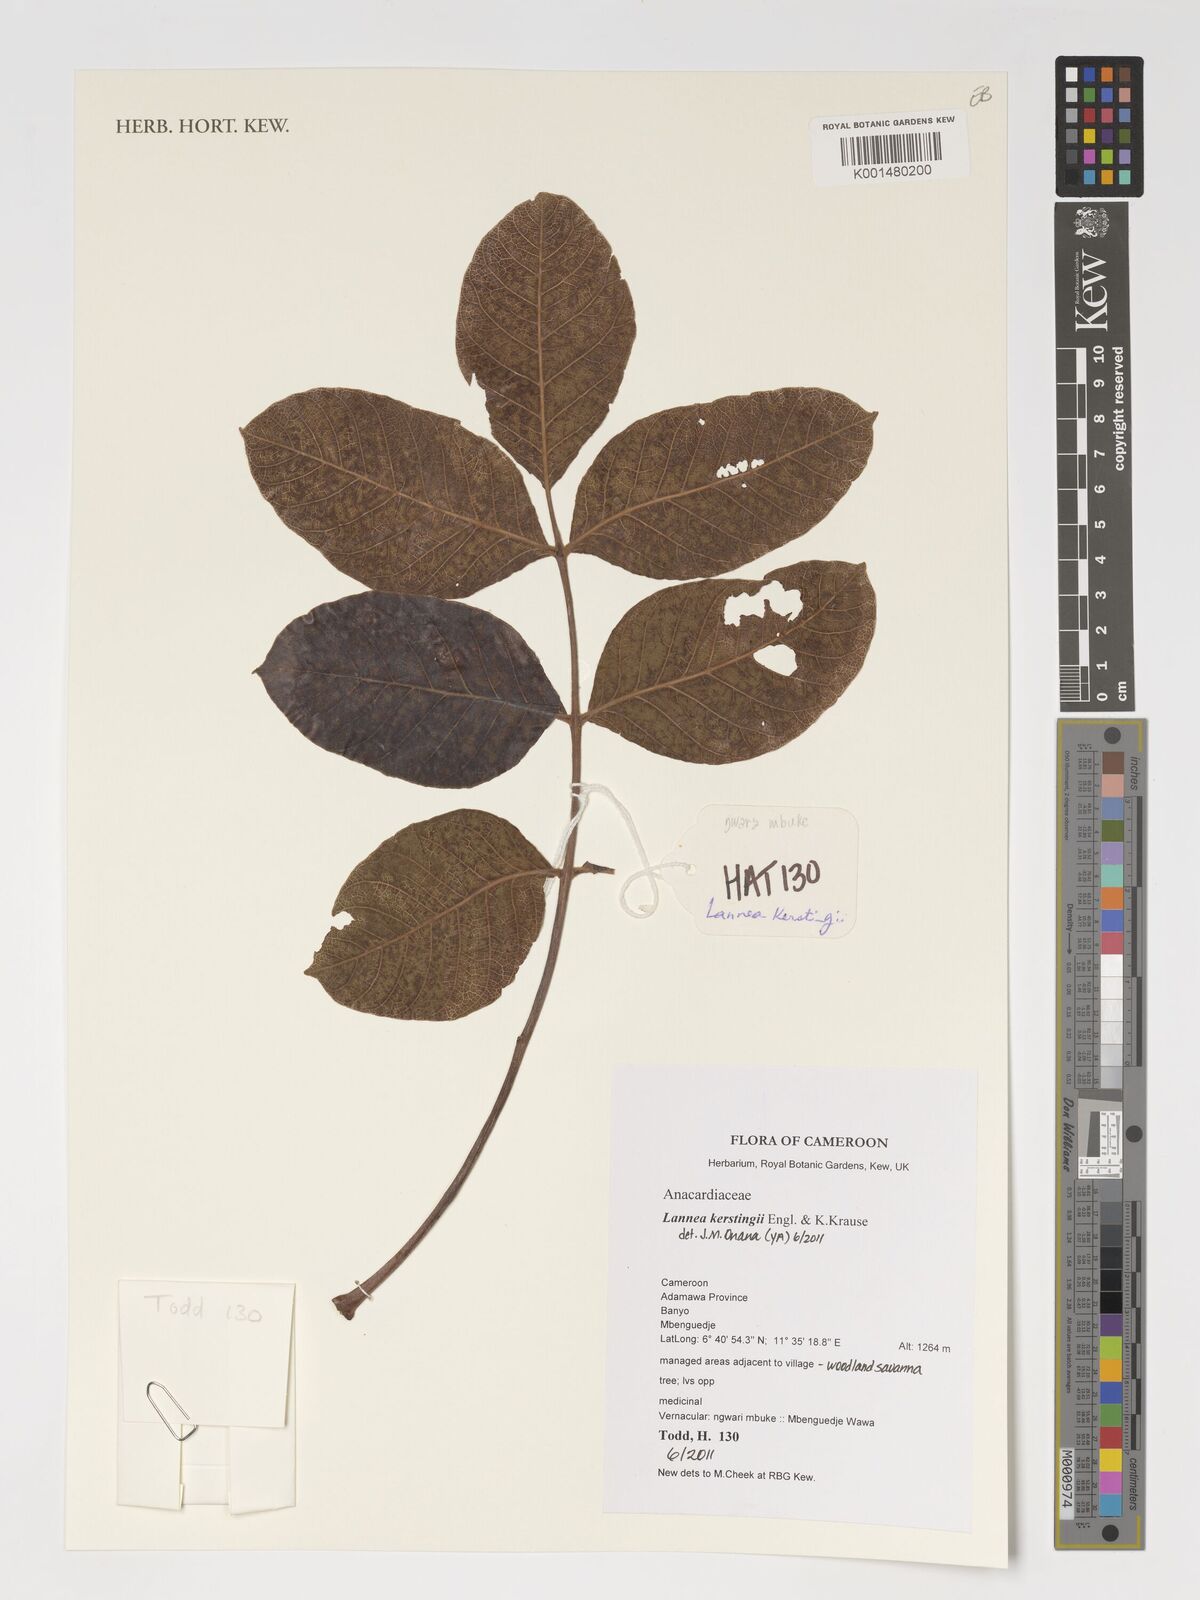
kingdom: Plantae
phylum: Tracheophyta
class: Magnoliopsida
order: Sapindales
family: Anacardiaceae
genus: Lannea
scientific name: Lannea barteri
